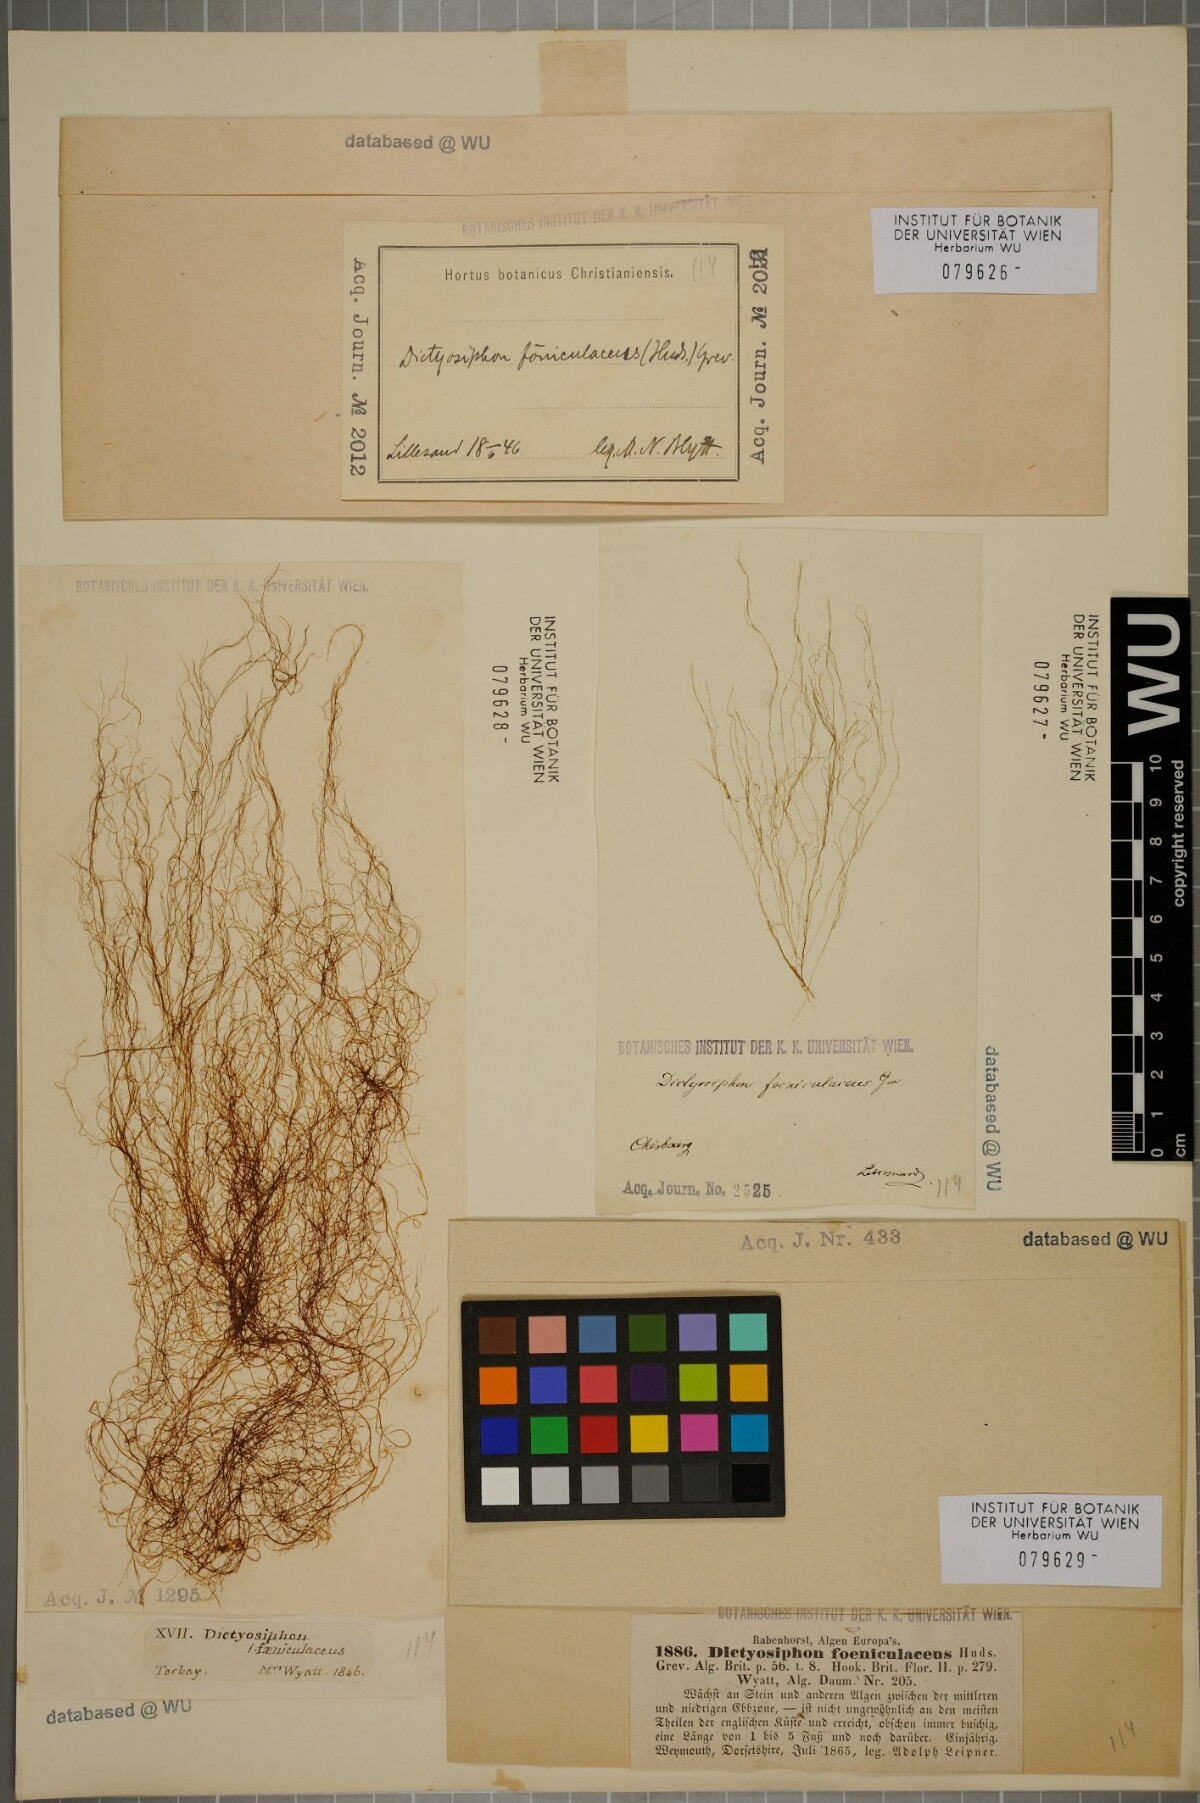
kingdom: Chromista
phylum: Ochrophyta
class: Phaeophyceae
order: Ectocarpales
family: Chordariaceae
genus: Dictyosiphon
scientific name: Dictyosiphon foeniculaceus
